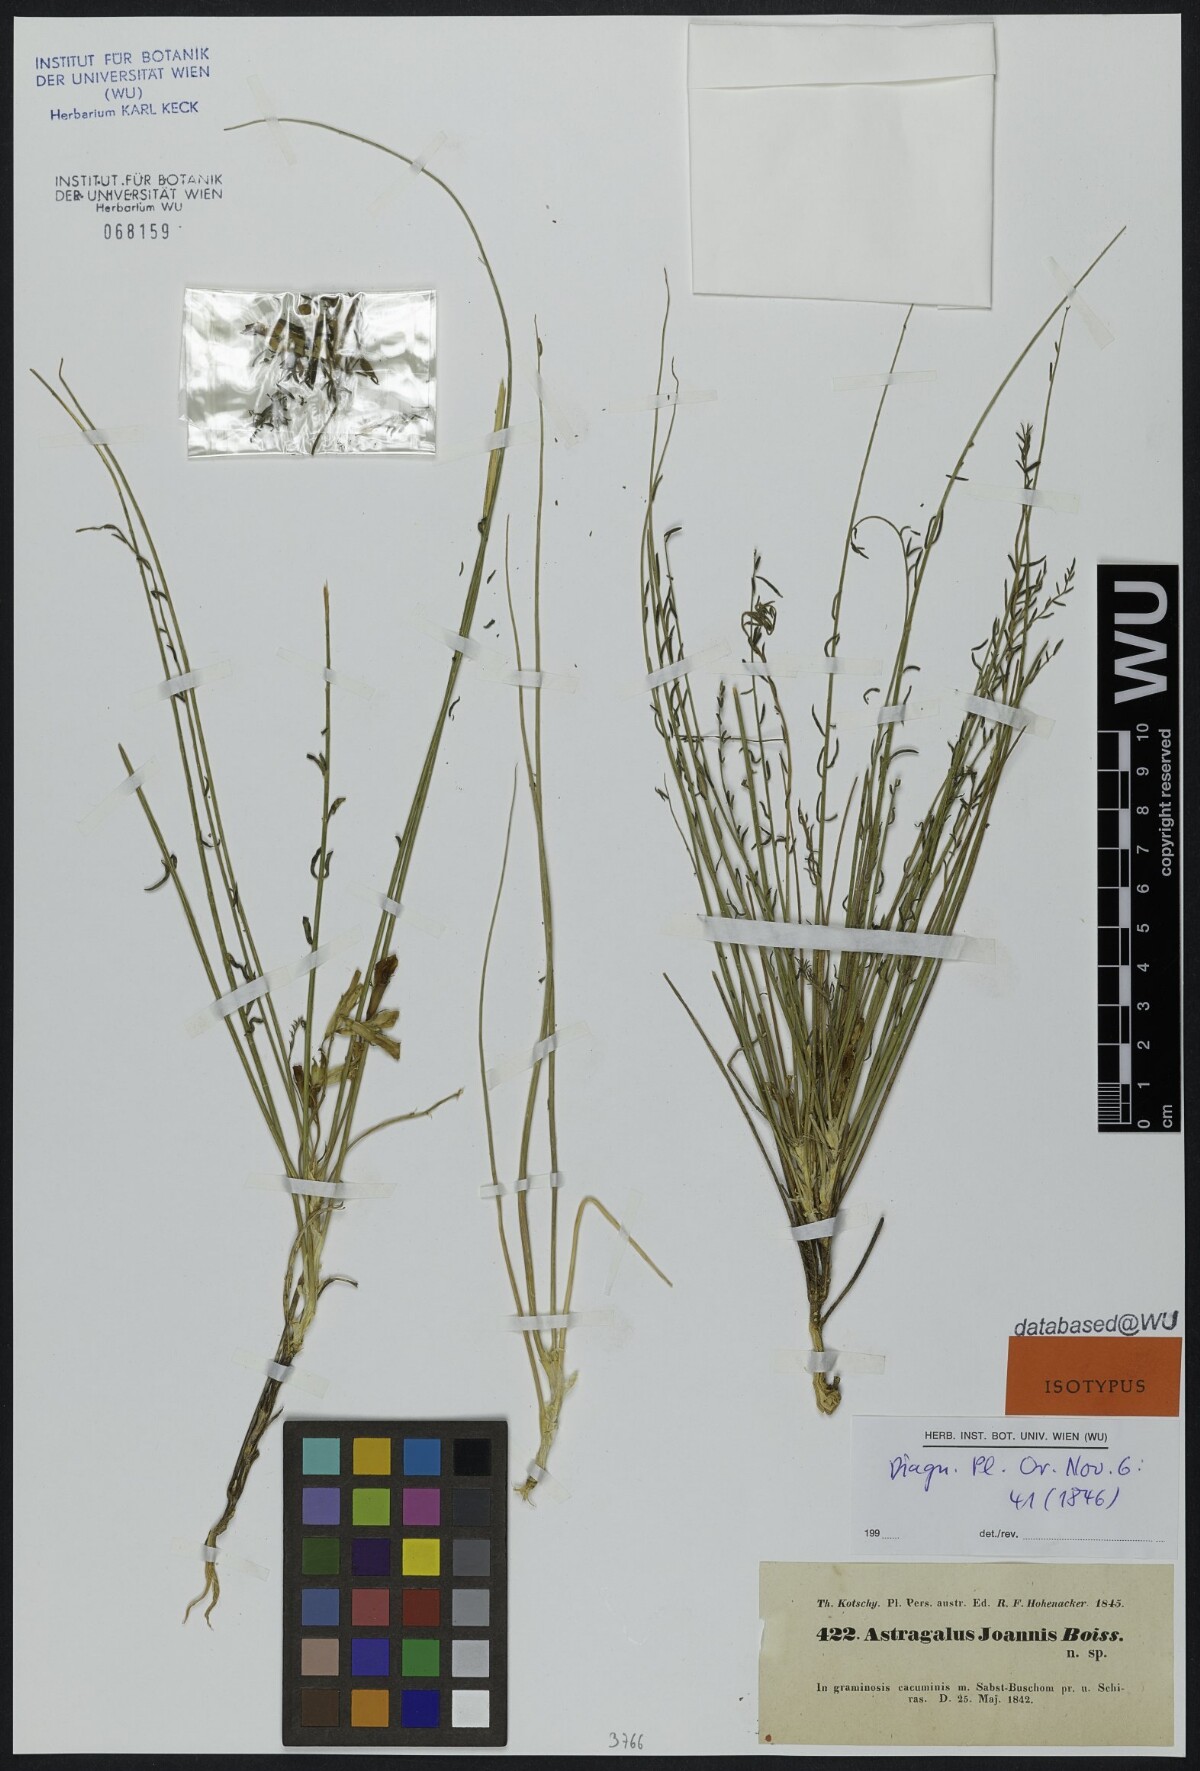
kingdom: Plantae
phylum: Tracheophyta
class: Magnoliopsida
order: Fabales
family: Fabaceae
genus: Astragalus
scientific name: Astragalus
